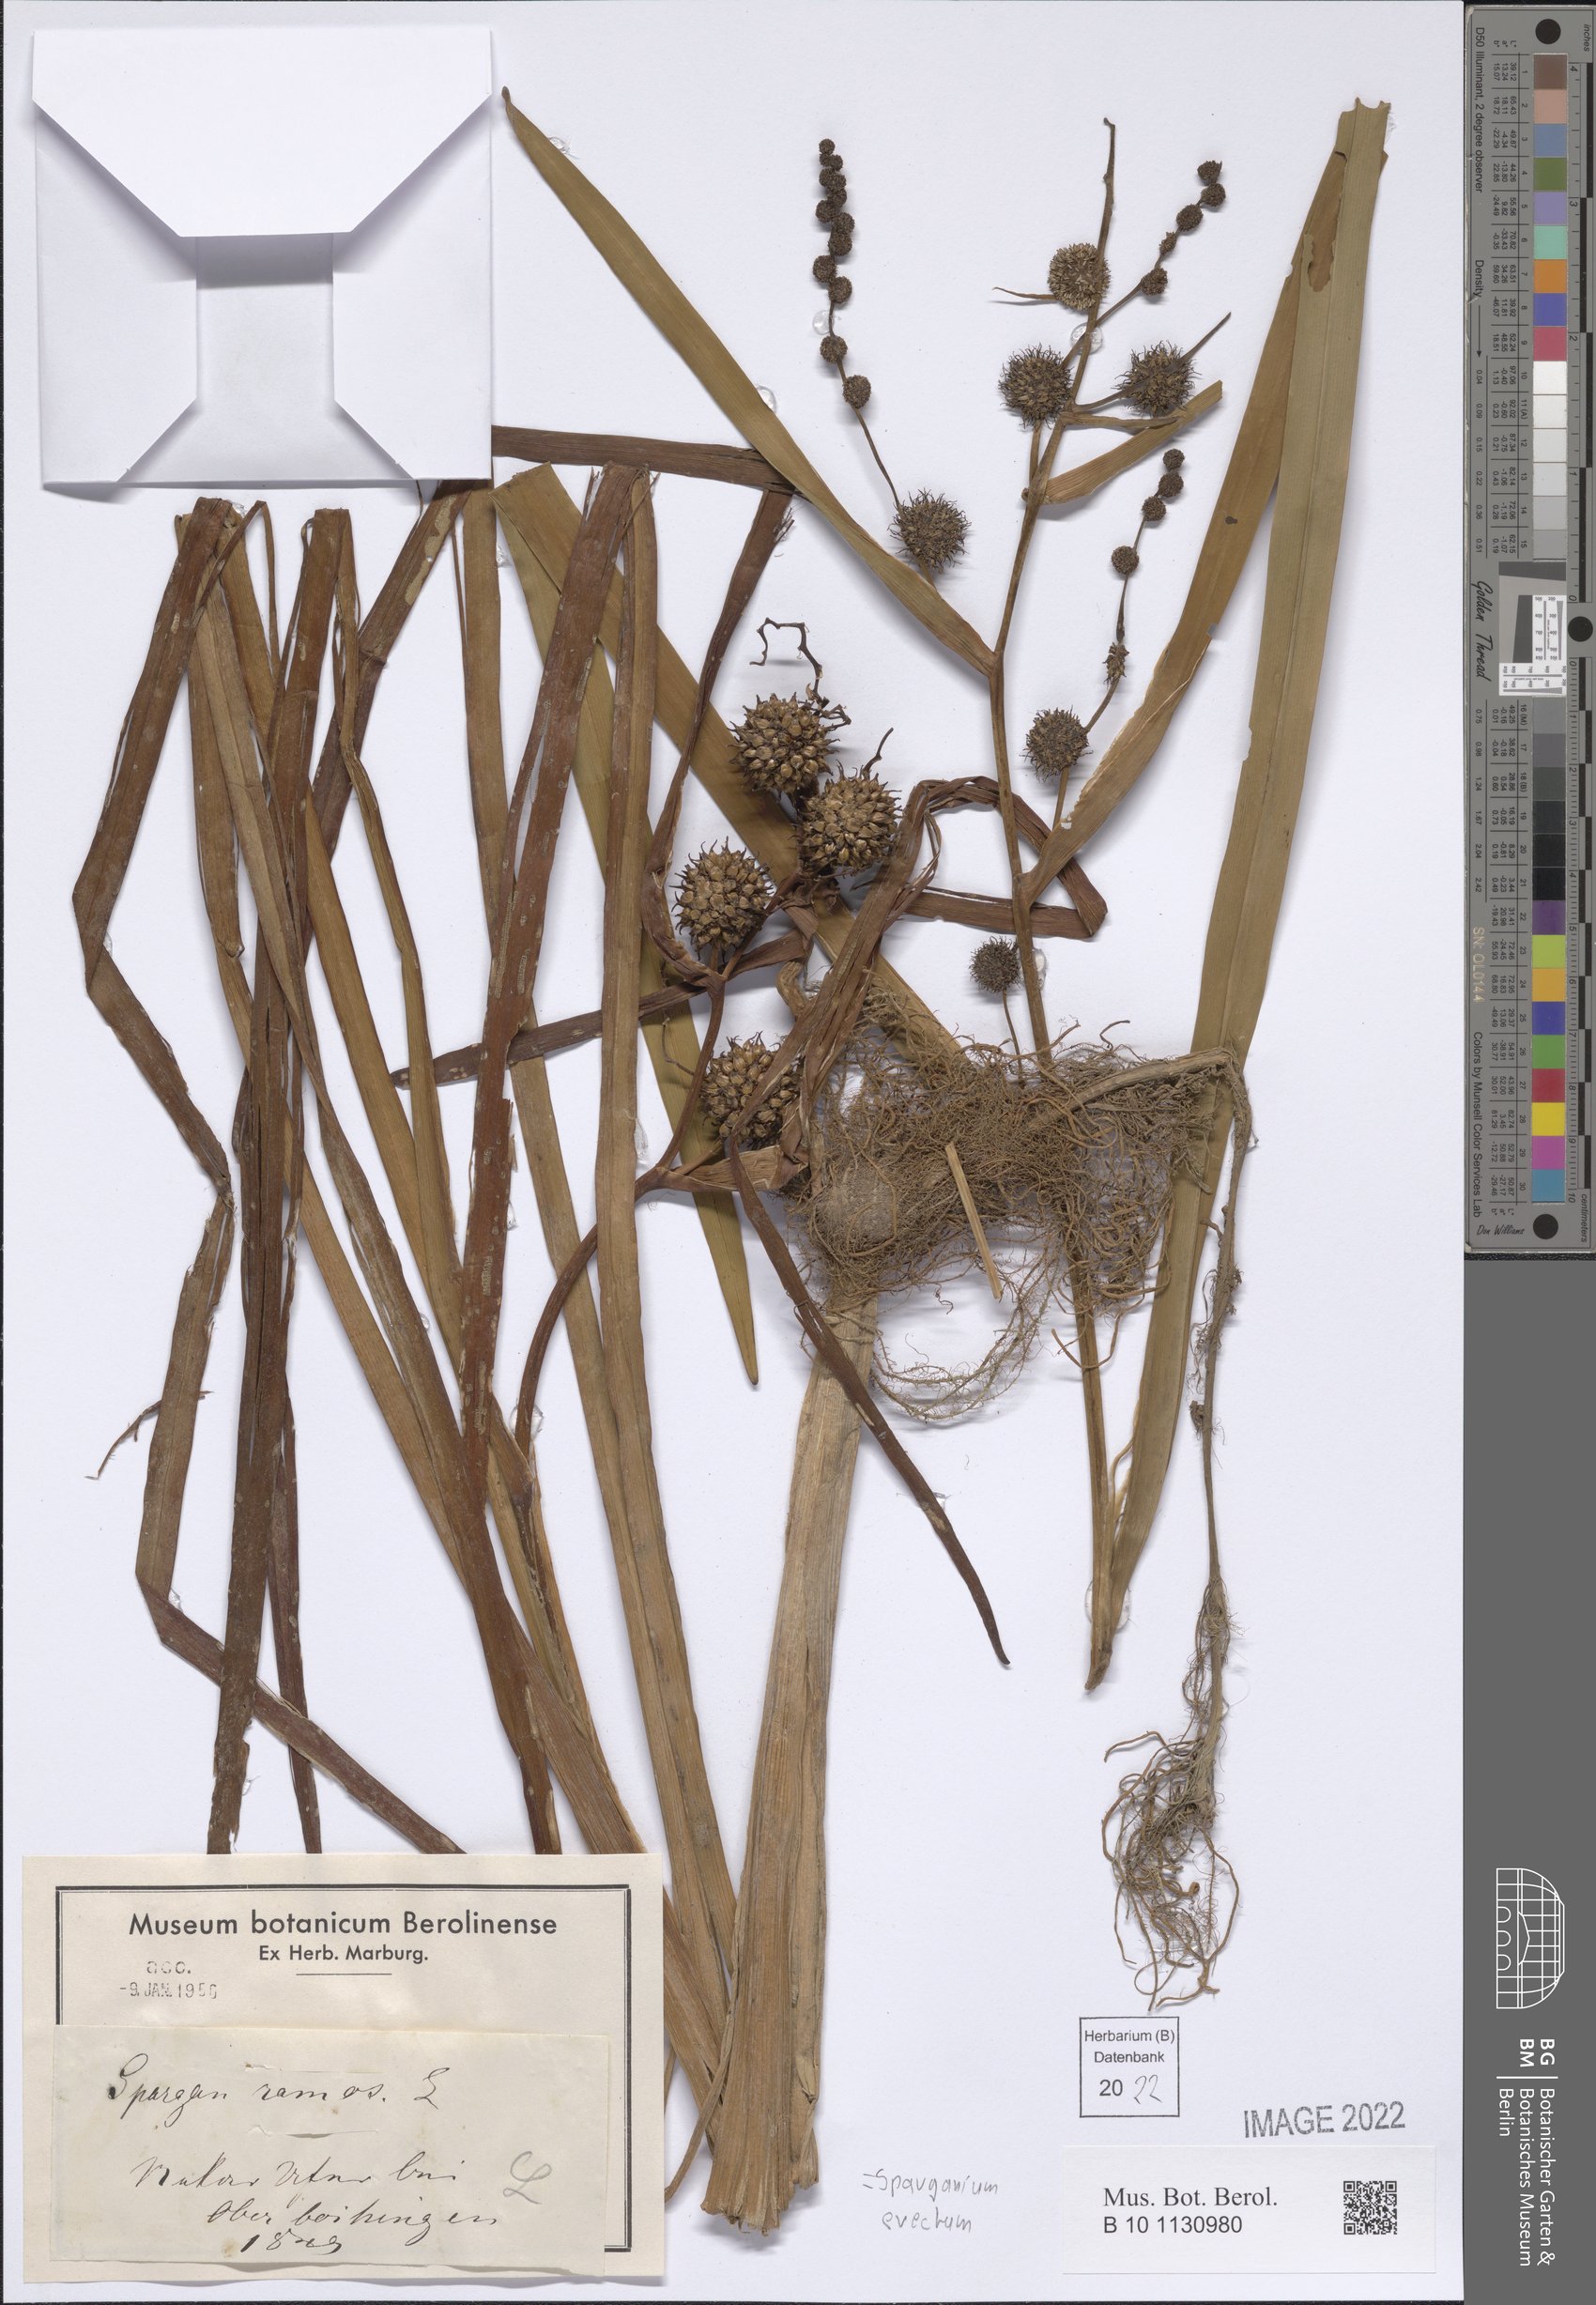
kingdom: Plantae
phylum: Tracheophyta
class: Liliopsida
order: Poales
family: Typhaceae
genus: Sparganium
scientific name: Sparganium erectum
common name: Branched bur-reed
